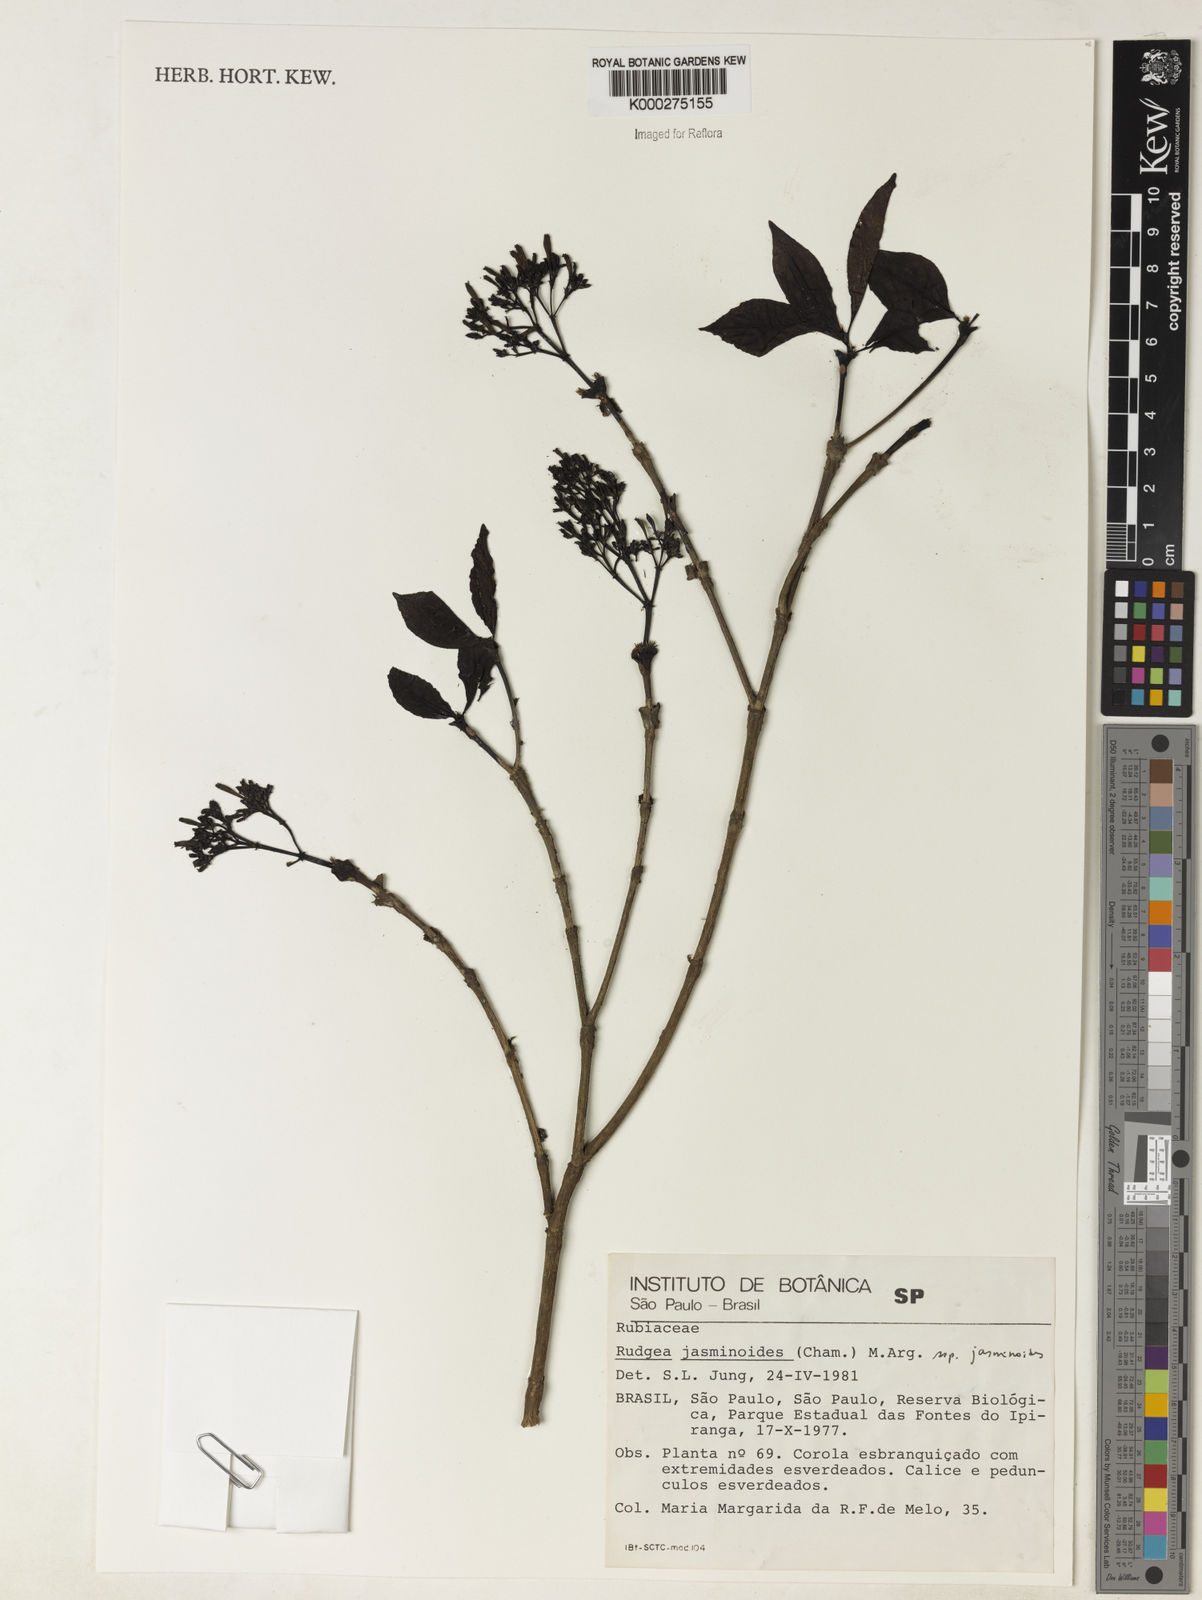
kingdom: Plantae
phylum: Tracheophyta
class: Magnoliopsida
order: Gentianales
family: Rubiaceae
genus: Rudgea
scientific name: Rudgea jasminoides
